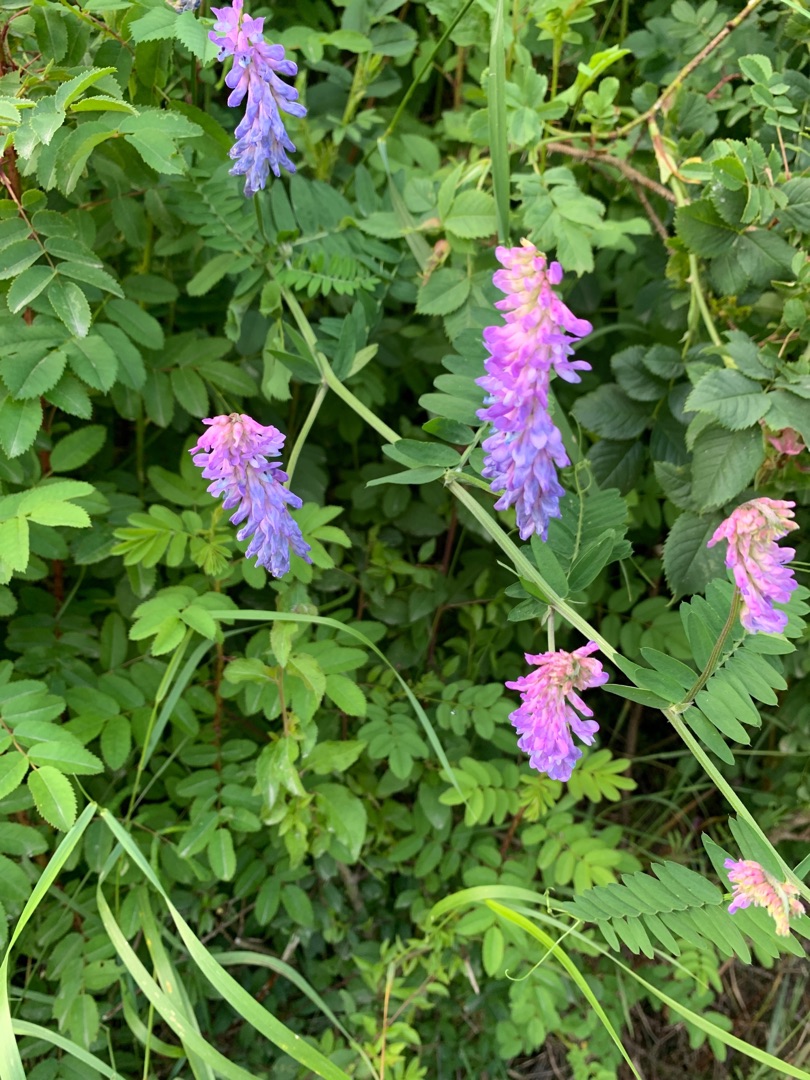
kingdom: Plantae
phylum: Tracheophyta
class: Magnoliopsida
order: Fabales
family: Fabaceae
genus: Vicia
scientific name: Vicia cracca
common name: Muse-vikke
